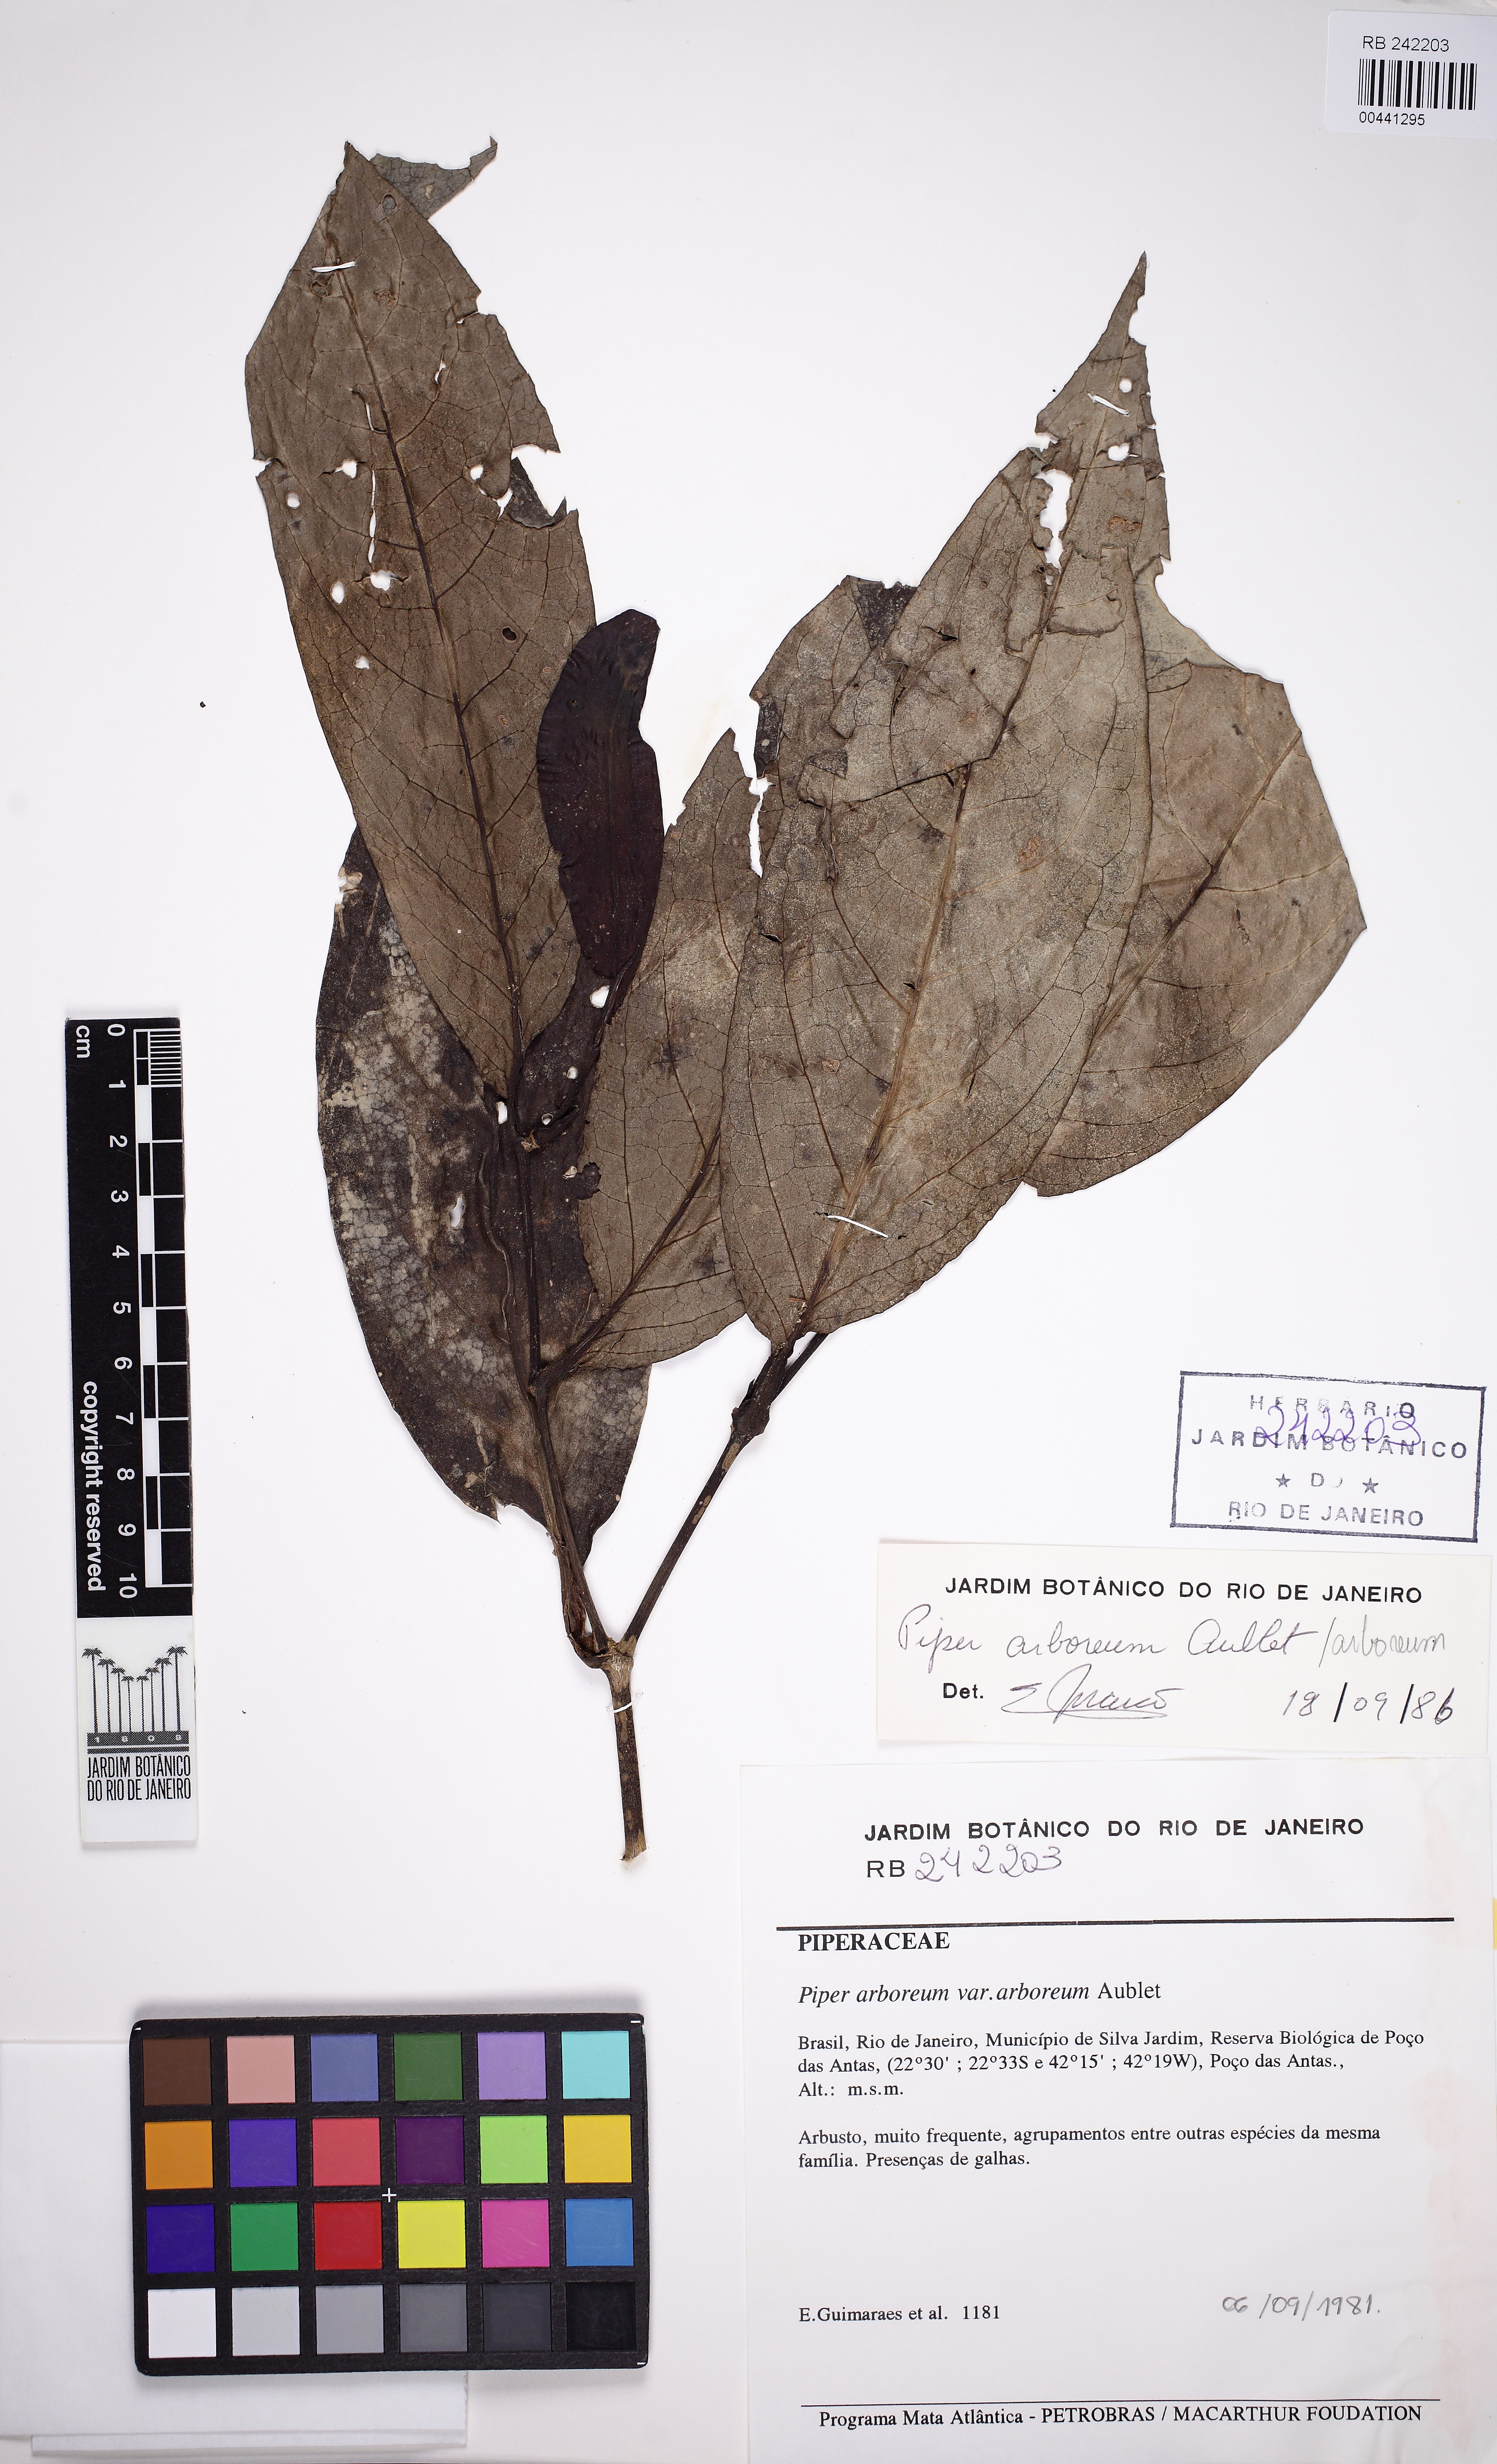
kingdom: Plantae
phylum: Tracheophyta
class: Magnoliopsida
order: Piperales
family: Piperaceae
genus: Piper
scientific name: Piper arboreum
